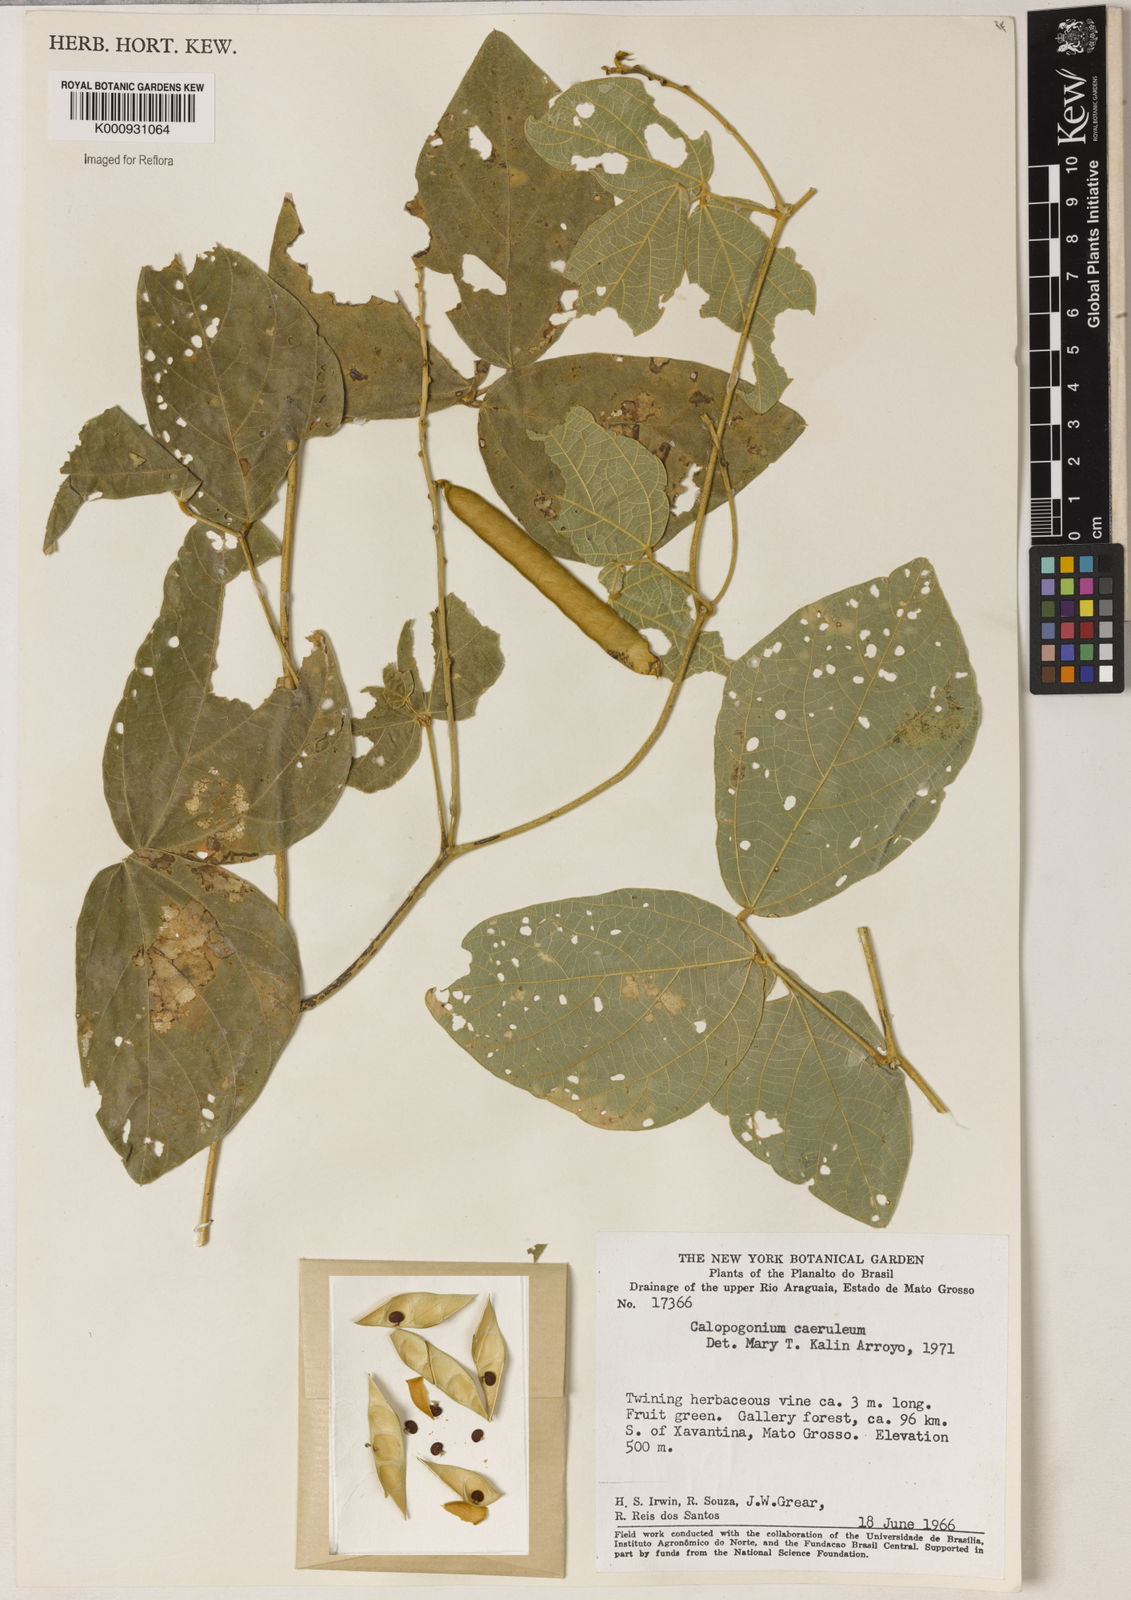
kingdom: Plantae
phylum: Tracheophyta
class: Magnoliopsida
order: Fabales
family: Fabaceae
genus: Calopogonium
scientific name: Calopogonium caeruleum
